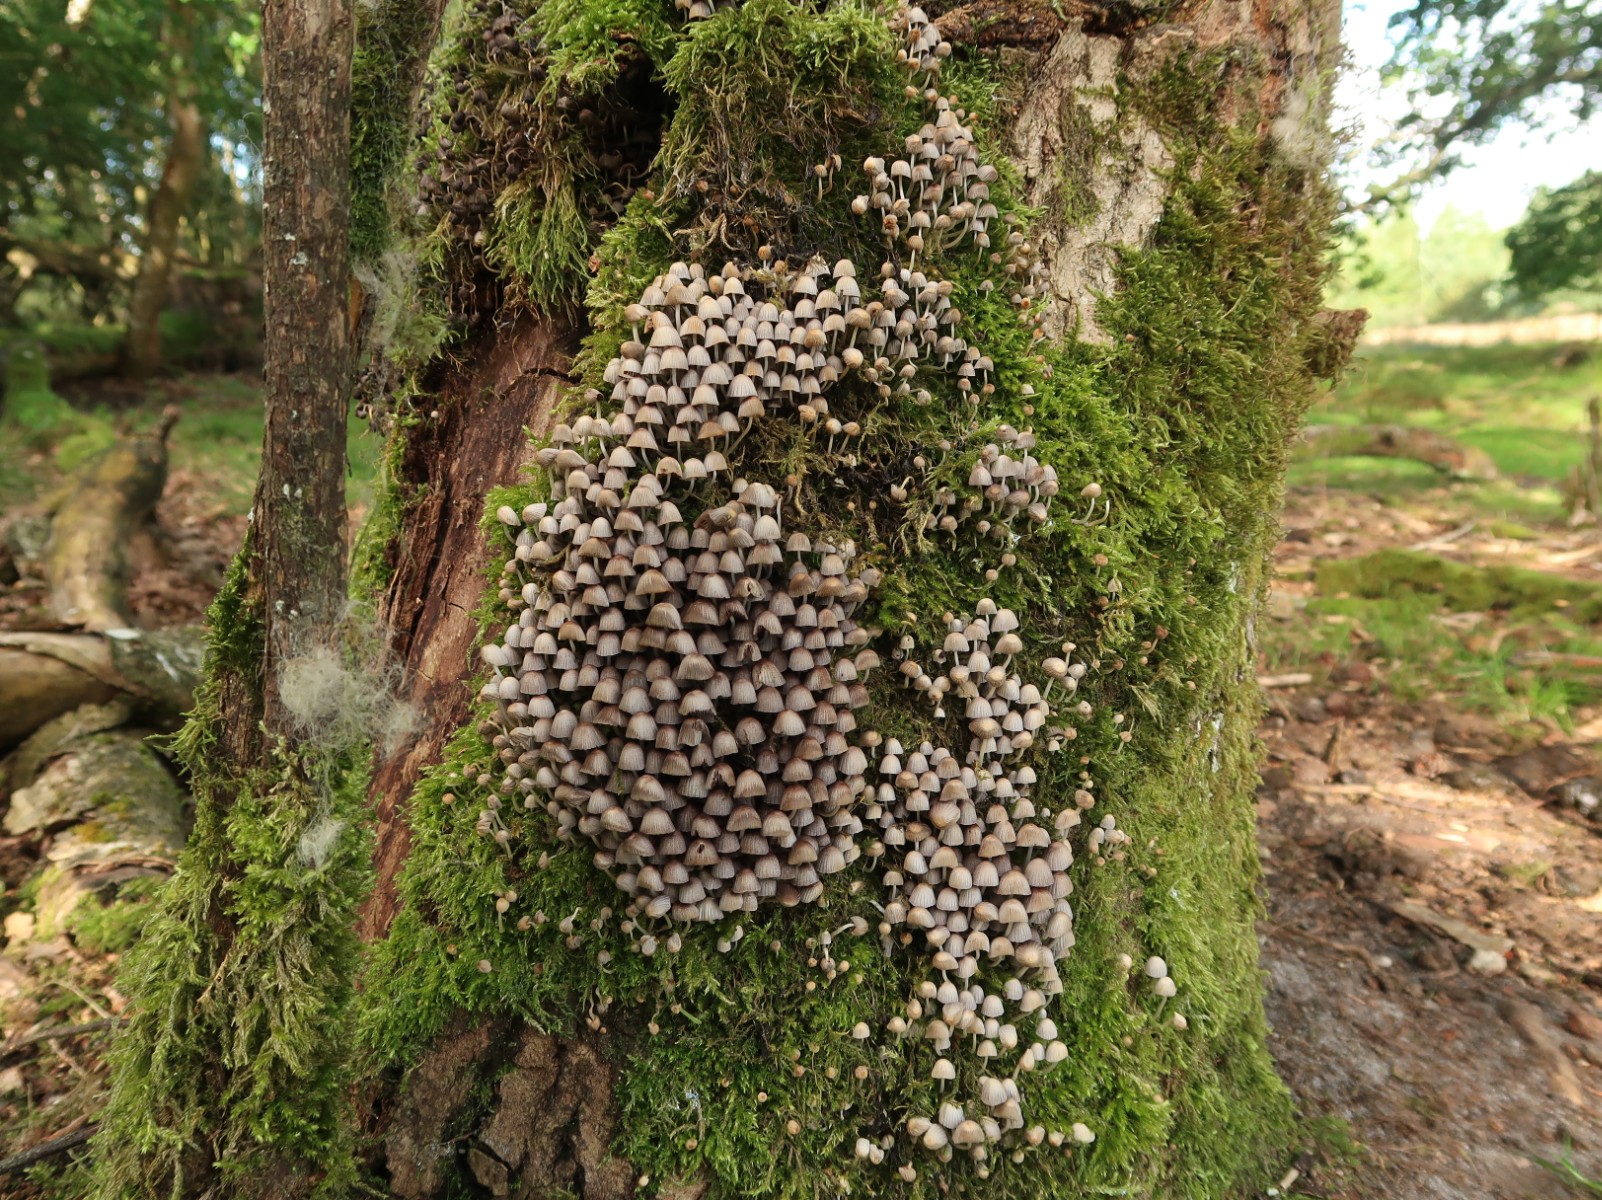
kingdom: Fungi
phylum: Basidiomycota
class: Agaricomycetes
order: Agaricales
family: Psathyrellaceae
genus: Coprinellus
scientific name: Coprinellus disseminatus
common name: bredsået blækhat
